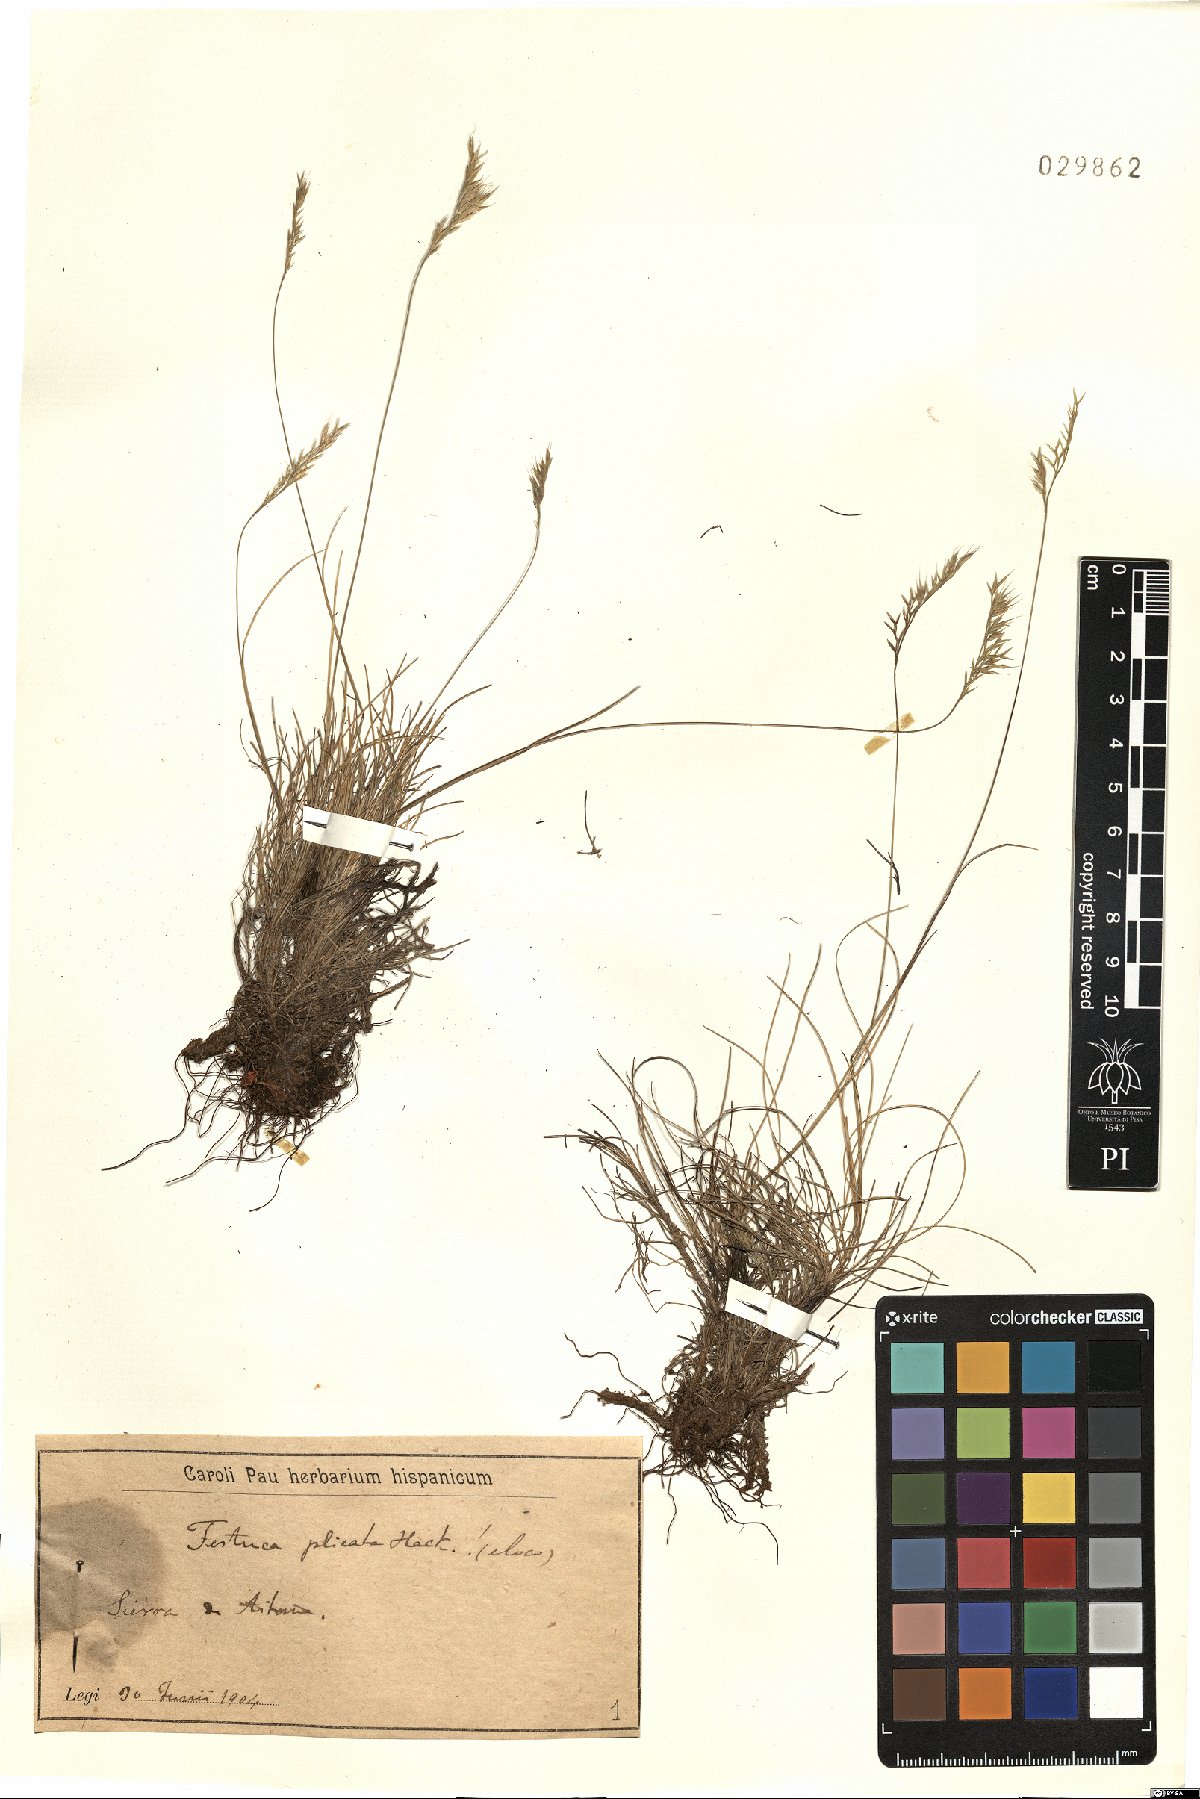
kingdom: Plantae
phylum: Tracheophyta
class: Liliopsida
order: Poales
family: Poaceae
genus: Festuca
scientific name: Festuca plicata
